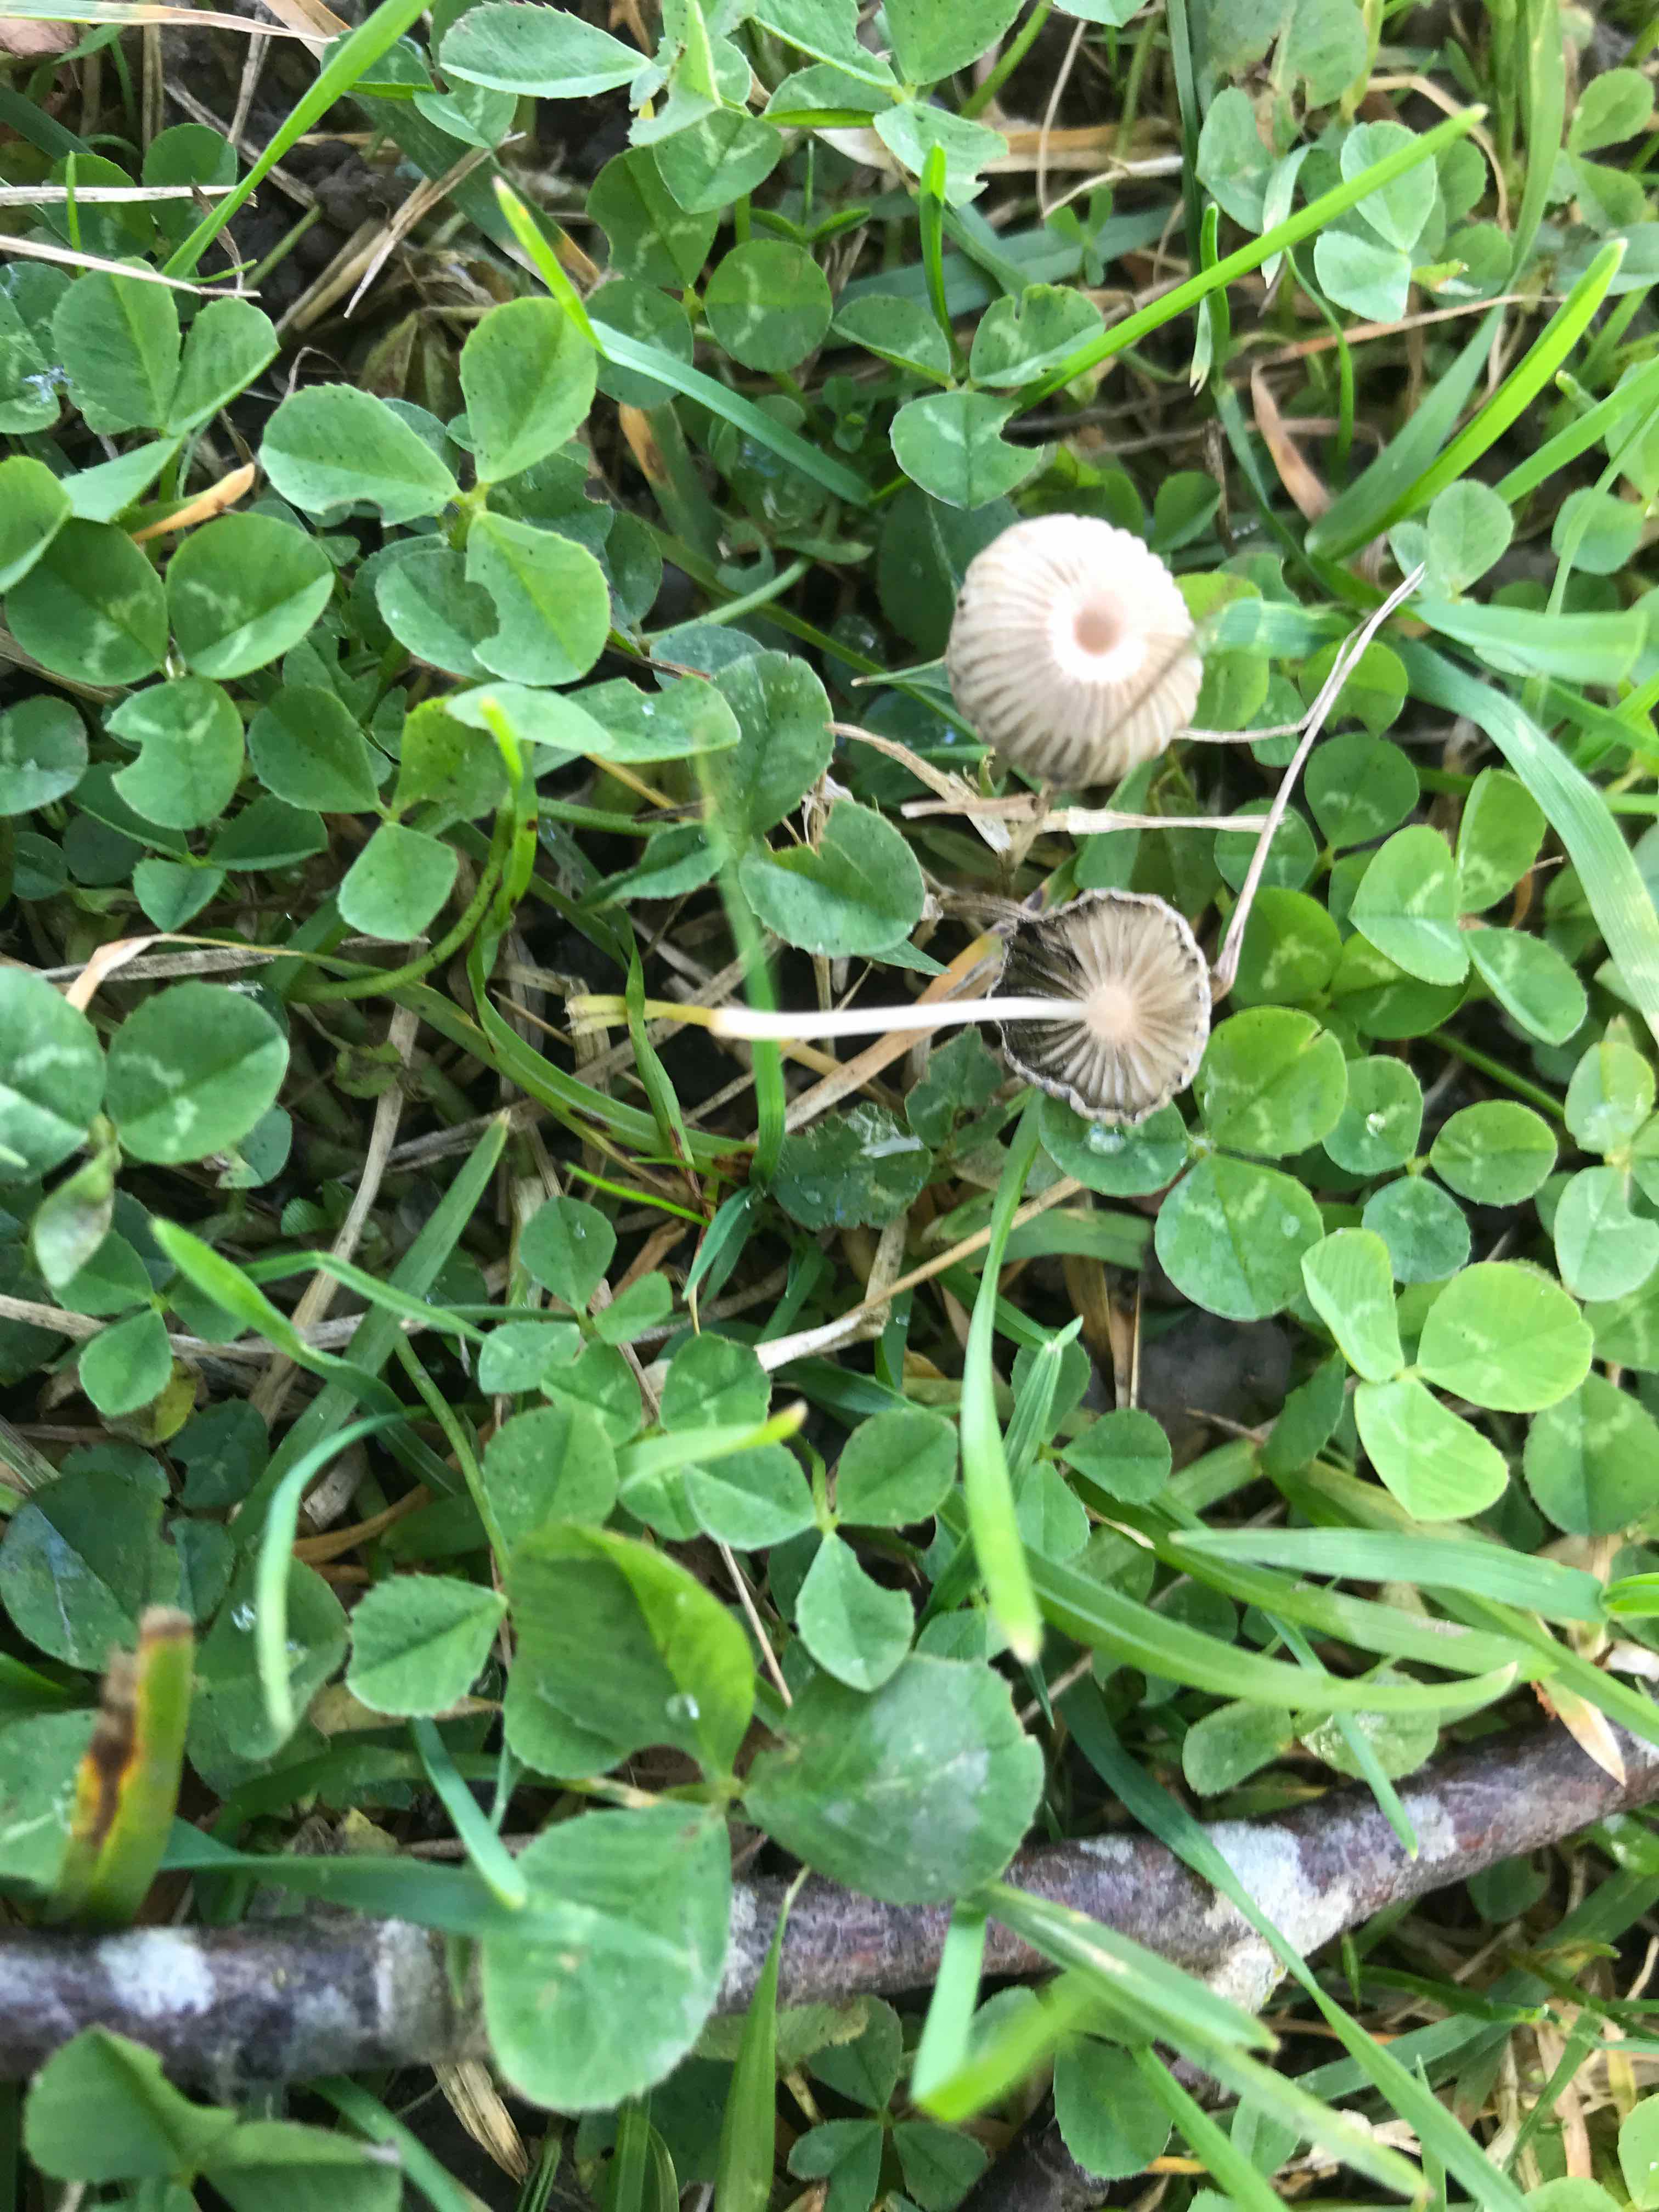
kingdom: Fungi
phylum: Basidiomycota
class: Agaricomycetes
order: Agaricales
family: Psathyrellaceae
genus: Parasola
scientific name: Parasola
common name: hjulhat
